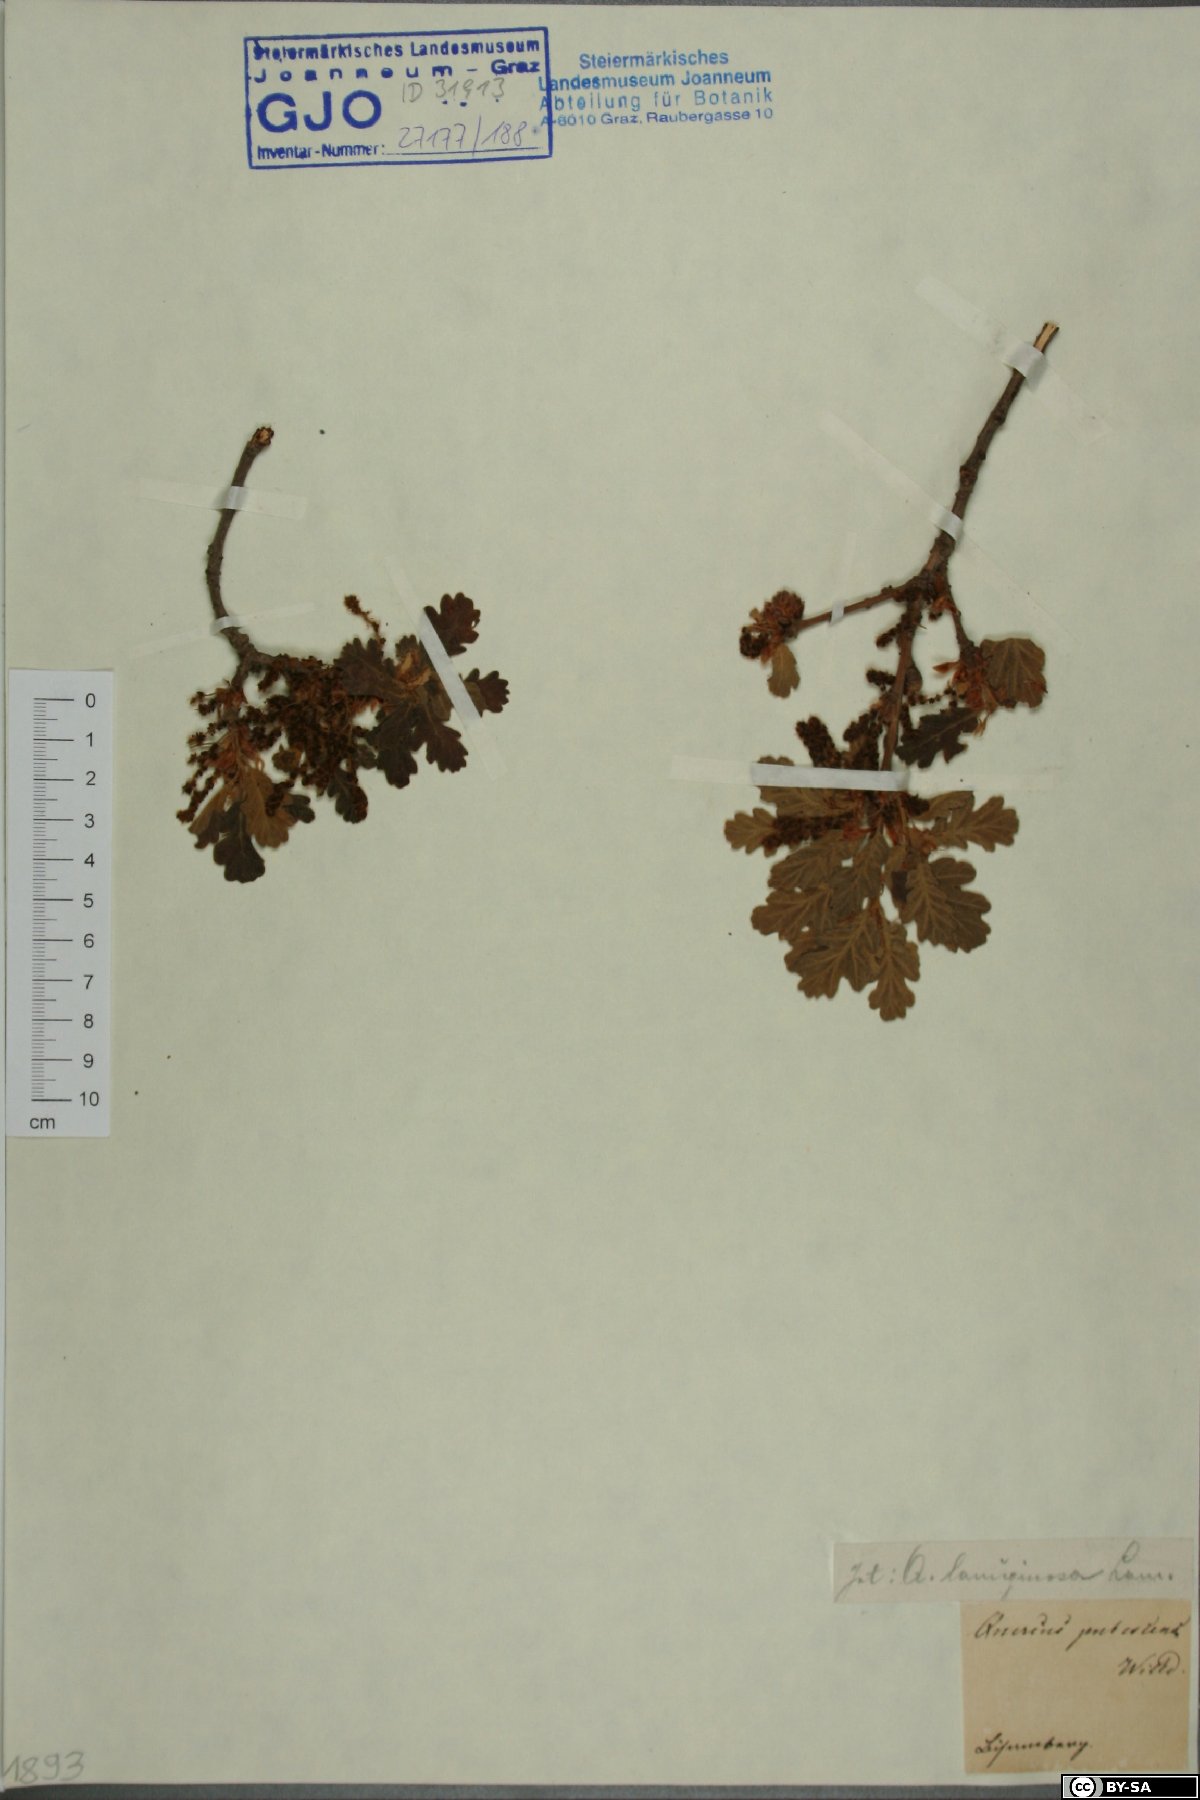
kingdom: Plantae
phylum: Tracheophyta
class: Magnoliopsida
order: Fagales
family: Fagaceae
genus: Quercus
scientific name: Quercus pubescens
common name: Downy oak
